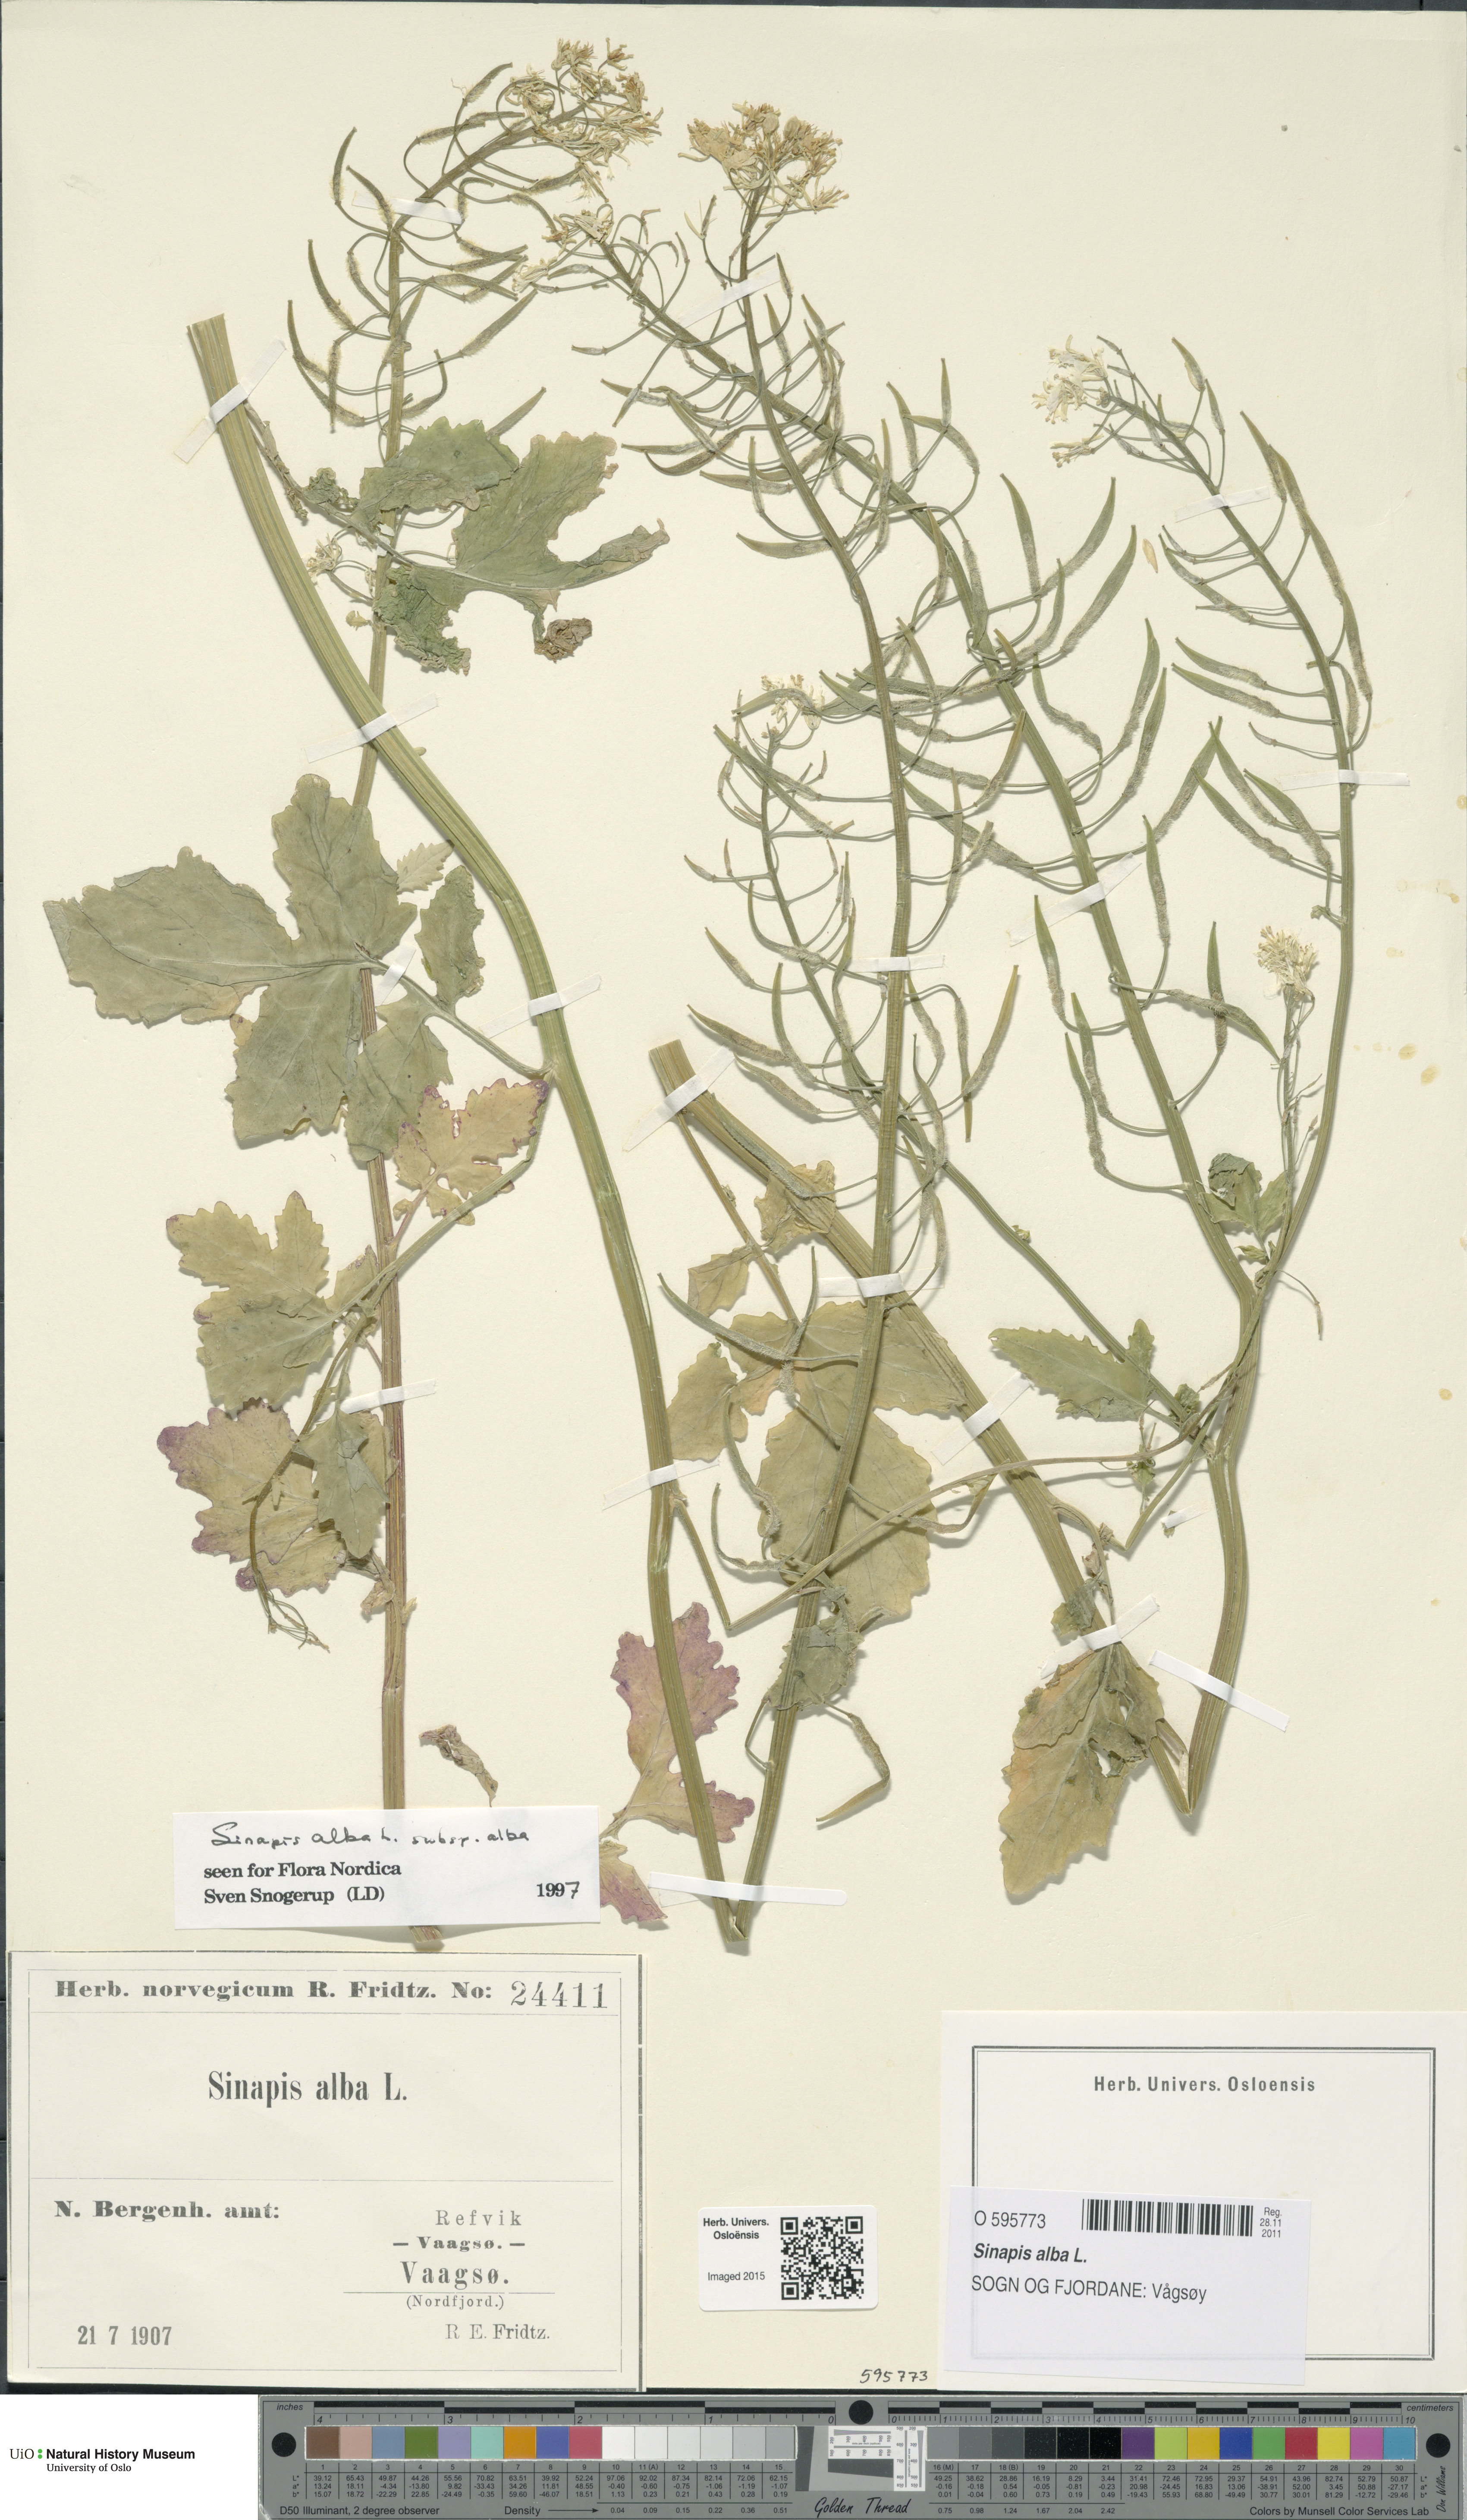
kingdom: Plantae
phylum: Tracheophyta
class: Magnoliopsida
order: Brassicales
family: Brassicaceae
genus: Sinapis
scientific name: Sinapis alba
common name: White mustard
